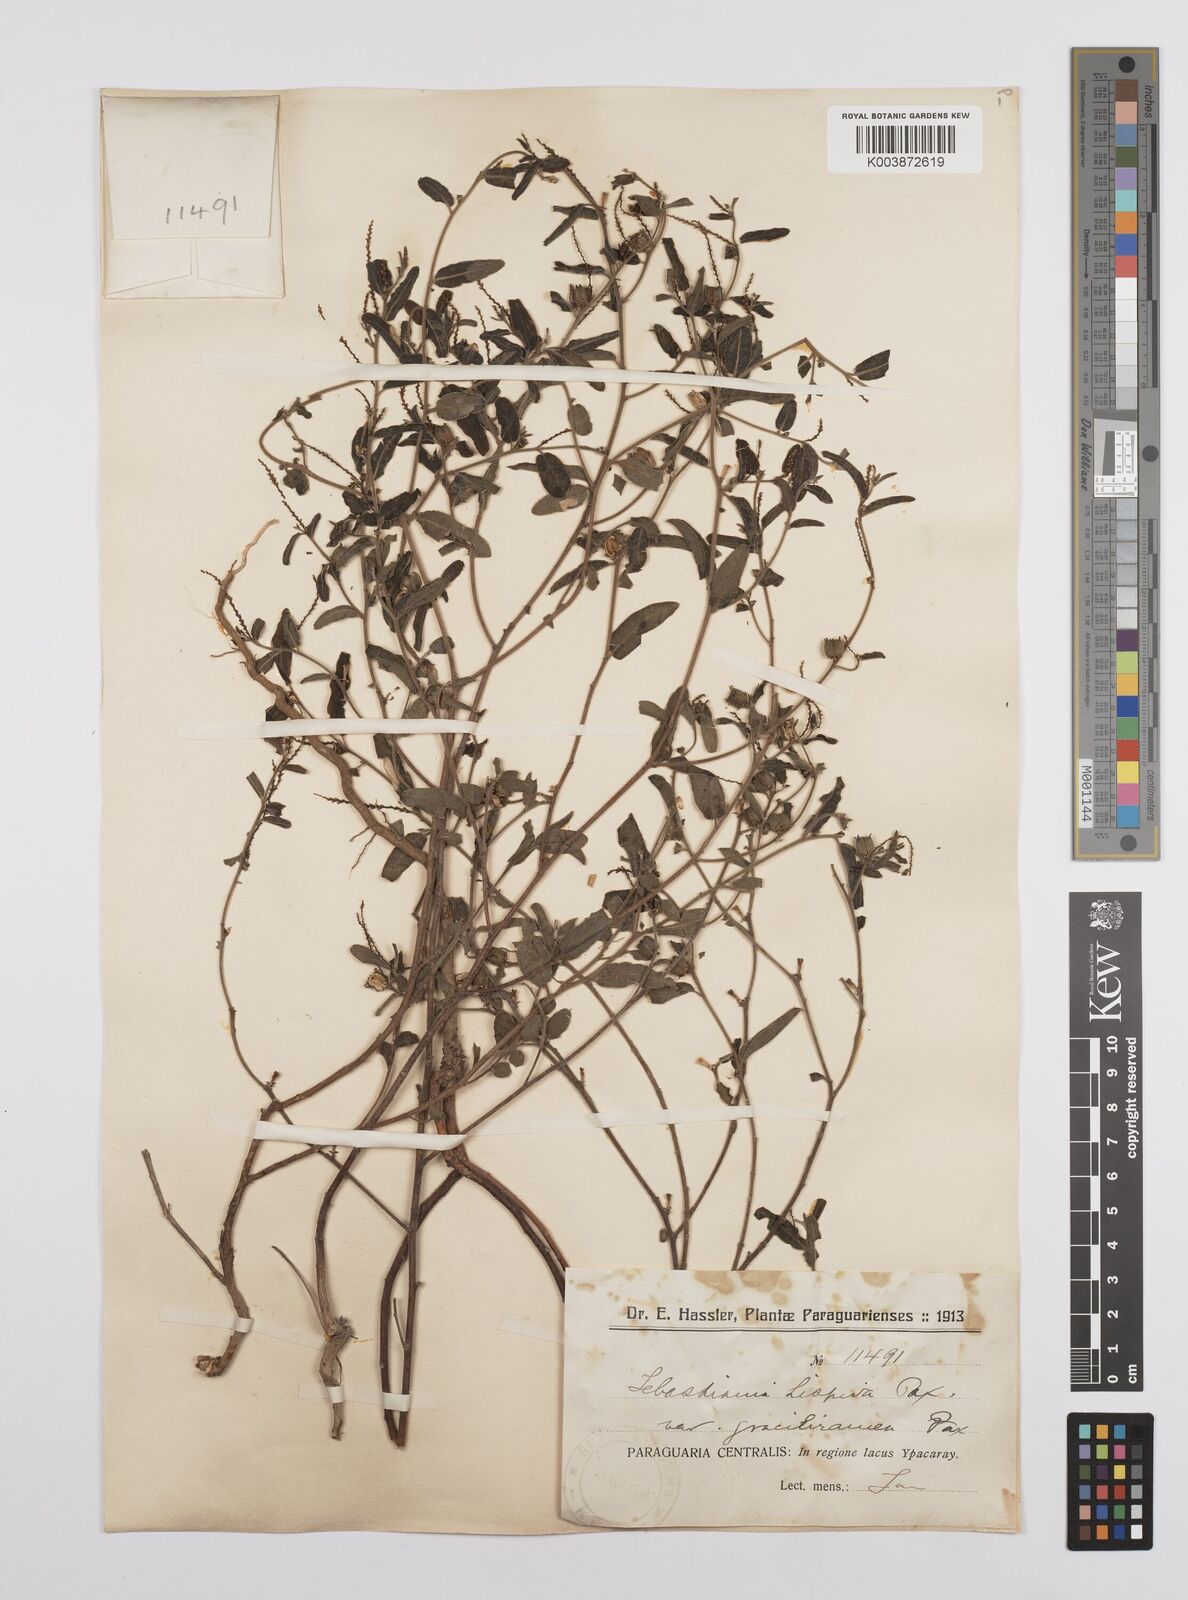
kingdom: Plantae
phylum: Tracheophyta
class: Magnoliopsida
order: Malpighiales
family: Euphorbiaceae
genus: Microstachys
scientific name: Microstachys hispida
